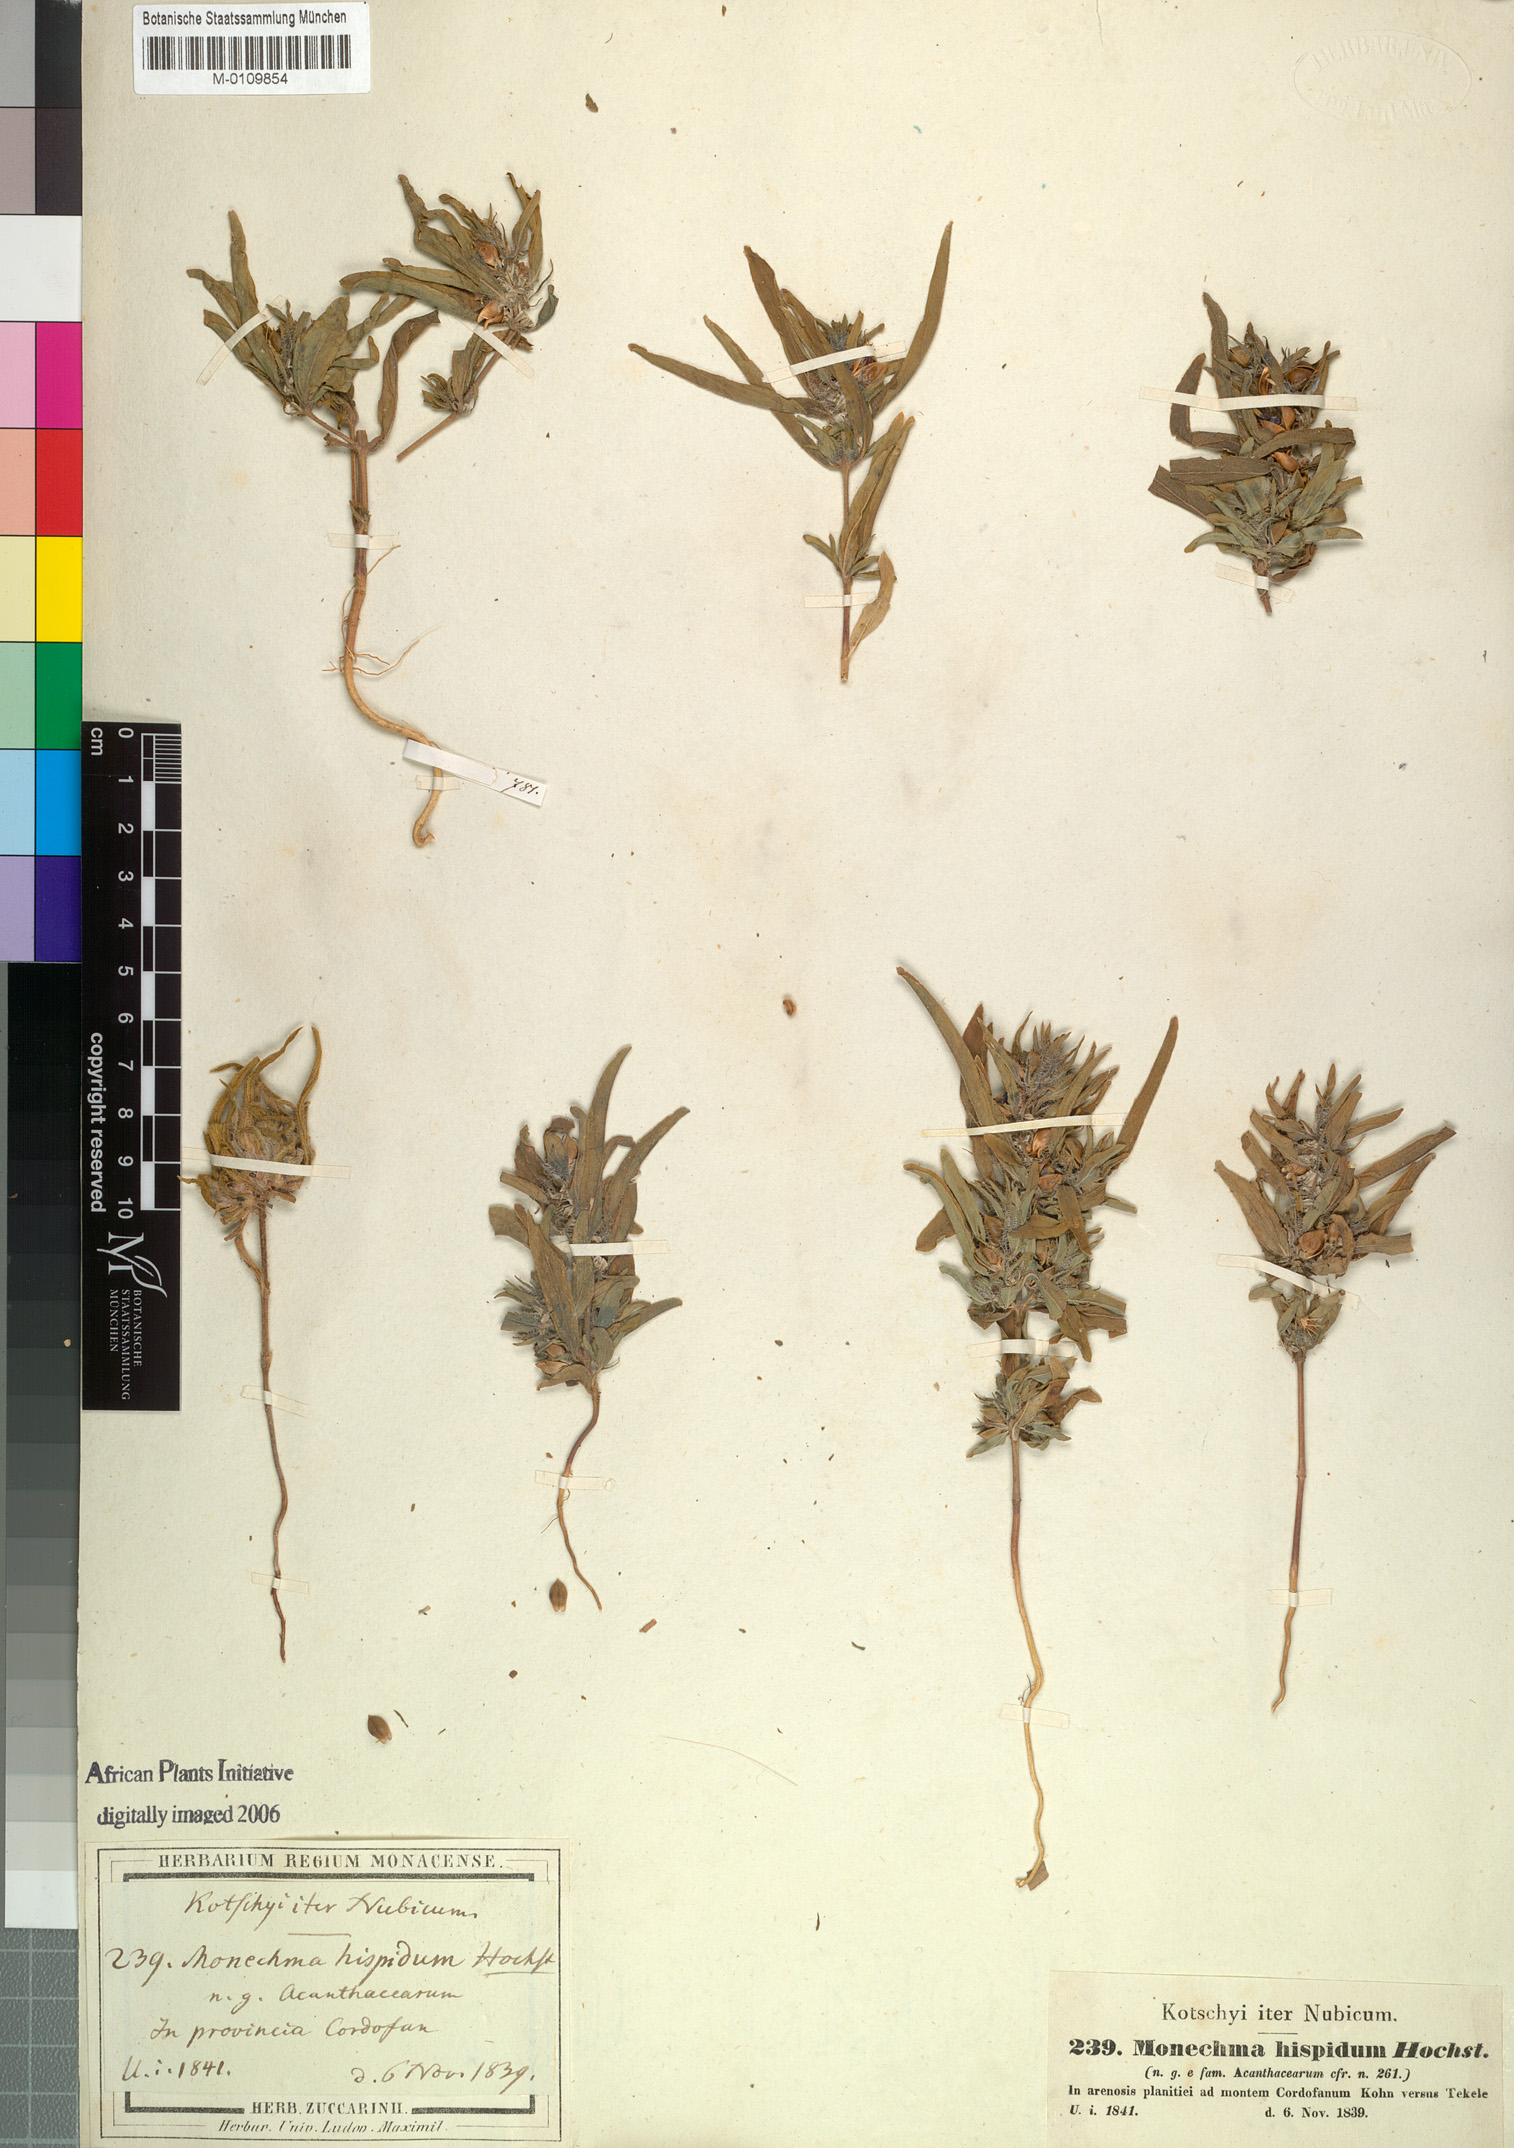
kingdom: Plantae
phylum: Tracheophyta
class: Magnoliopsida
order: Lamiales
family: Acanthaceae
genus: Monechma
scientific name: Monechma Schwabea ciliata
